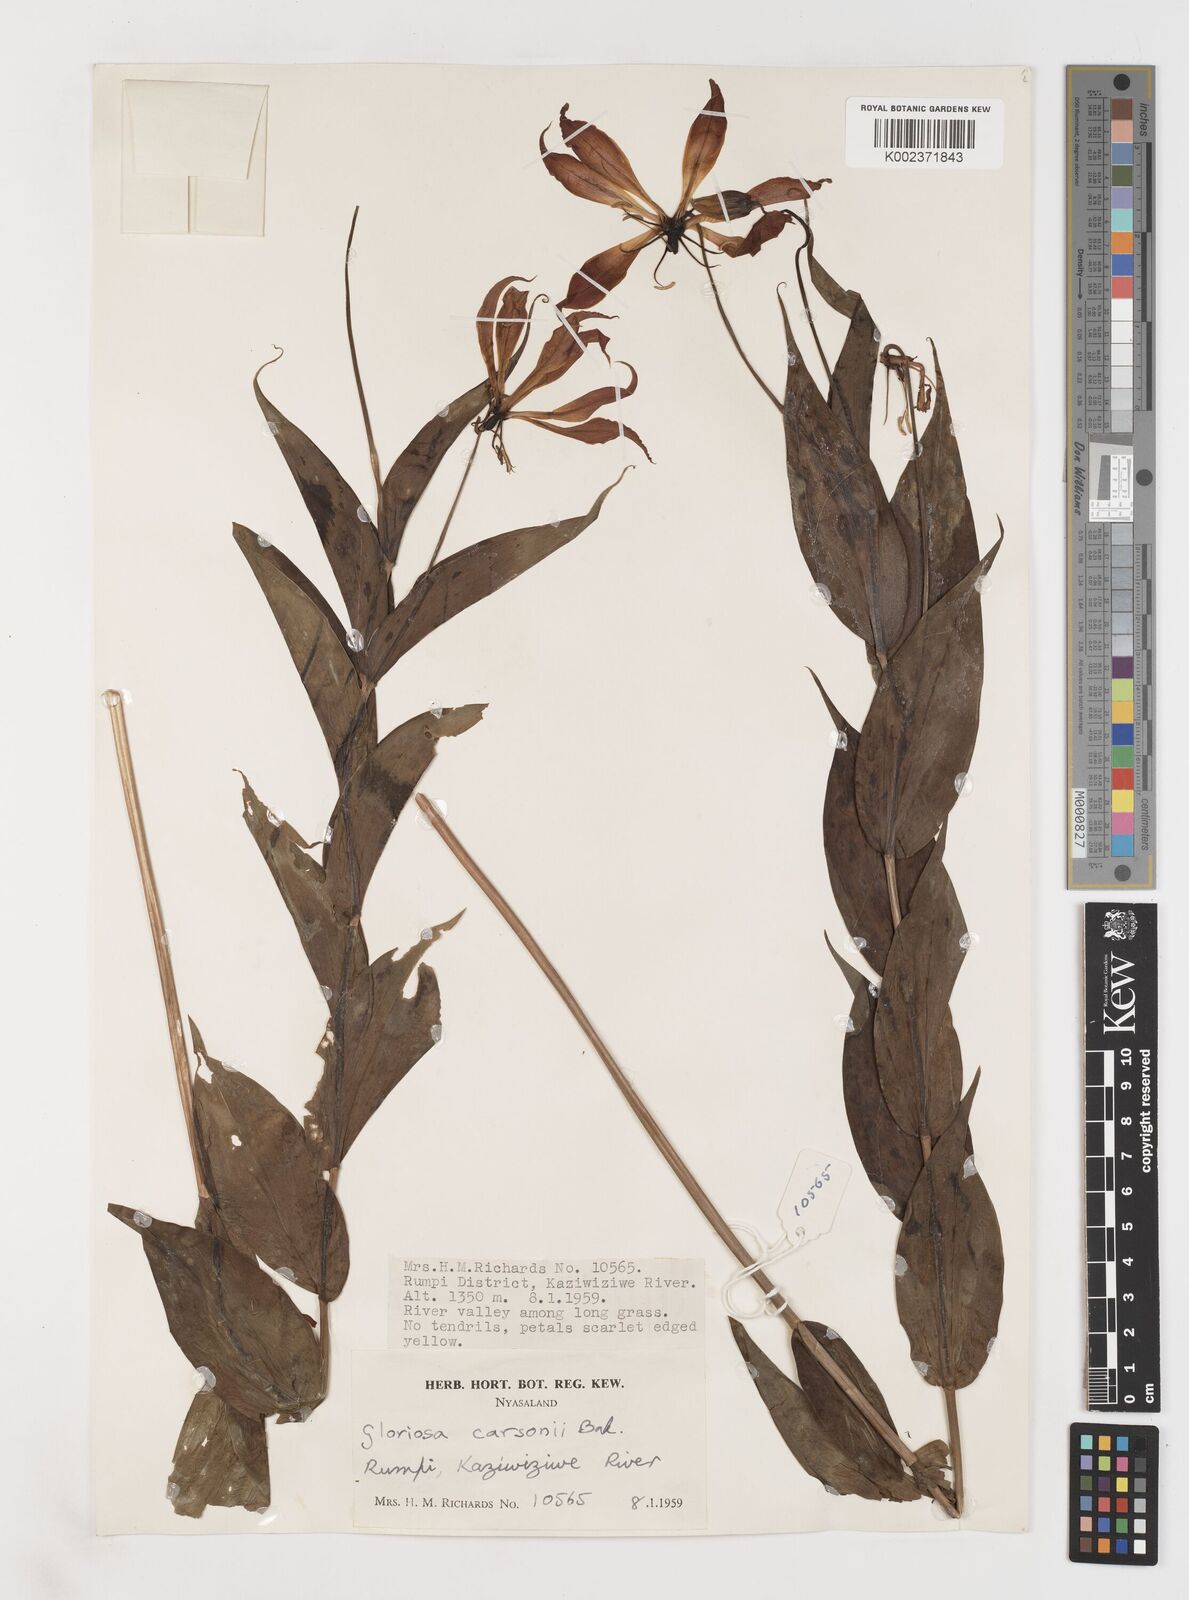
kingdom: Plantae
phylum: Tracheophyta
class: Liliopsida
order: Liliales
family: Colchicaceae
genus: Gloriosa
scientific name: Gloriosa simplex
